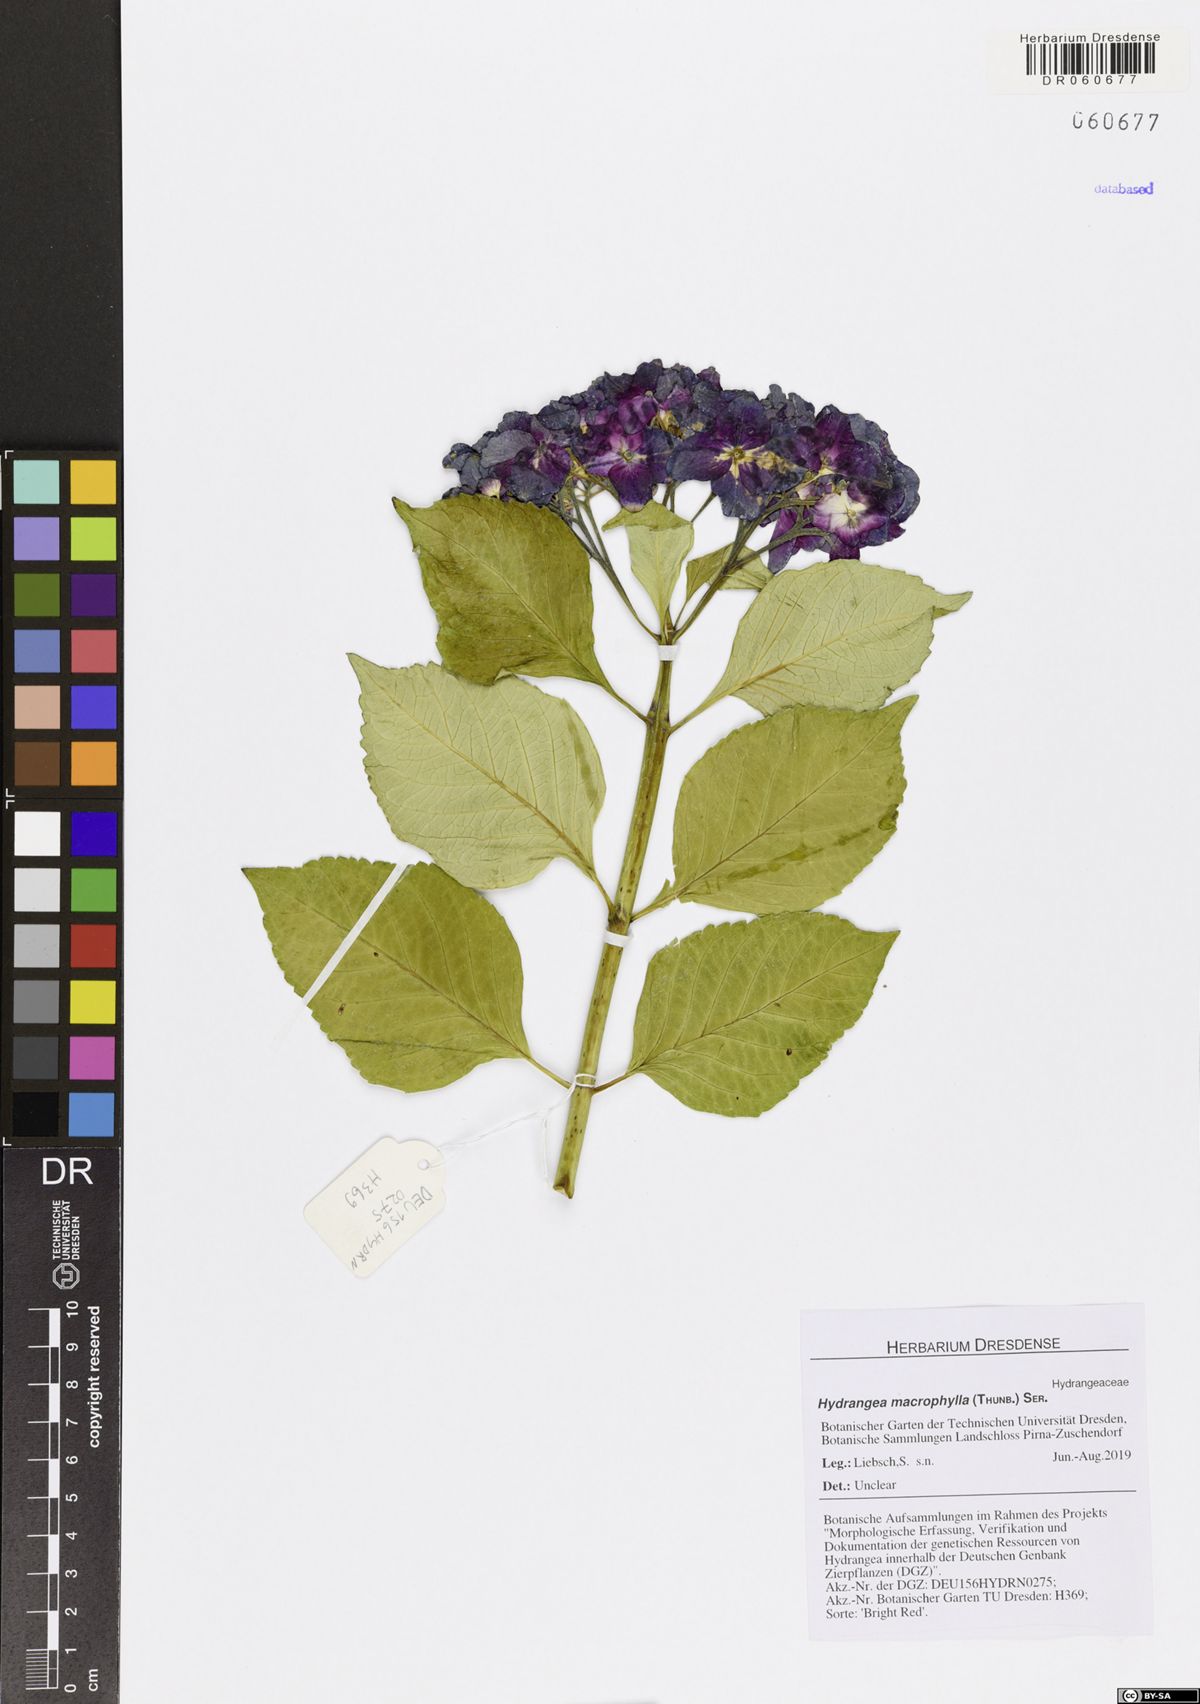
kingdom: Plantae
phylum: Tracheophyta
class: Magnoliopsida
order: Cornales
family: Hydrangeaceae
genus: Hydrangea
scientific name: Hydrangea macrophylla
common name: Hydrangea
